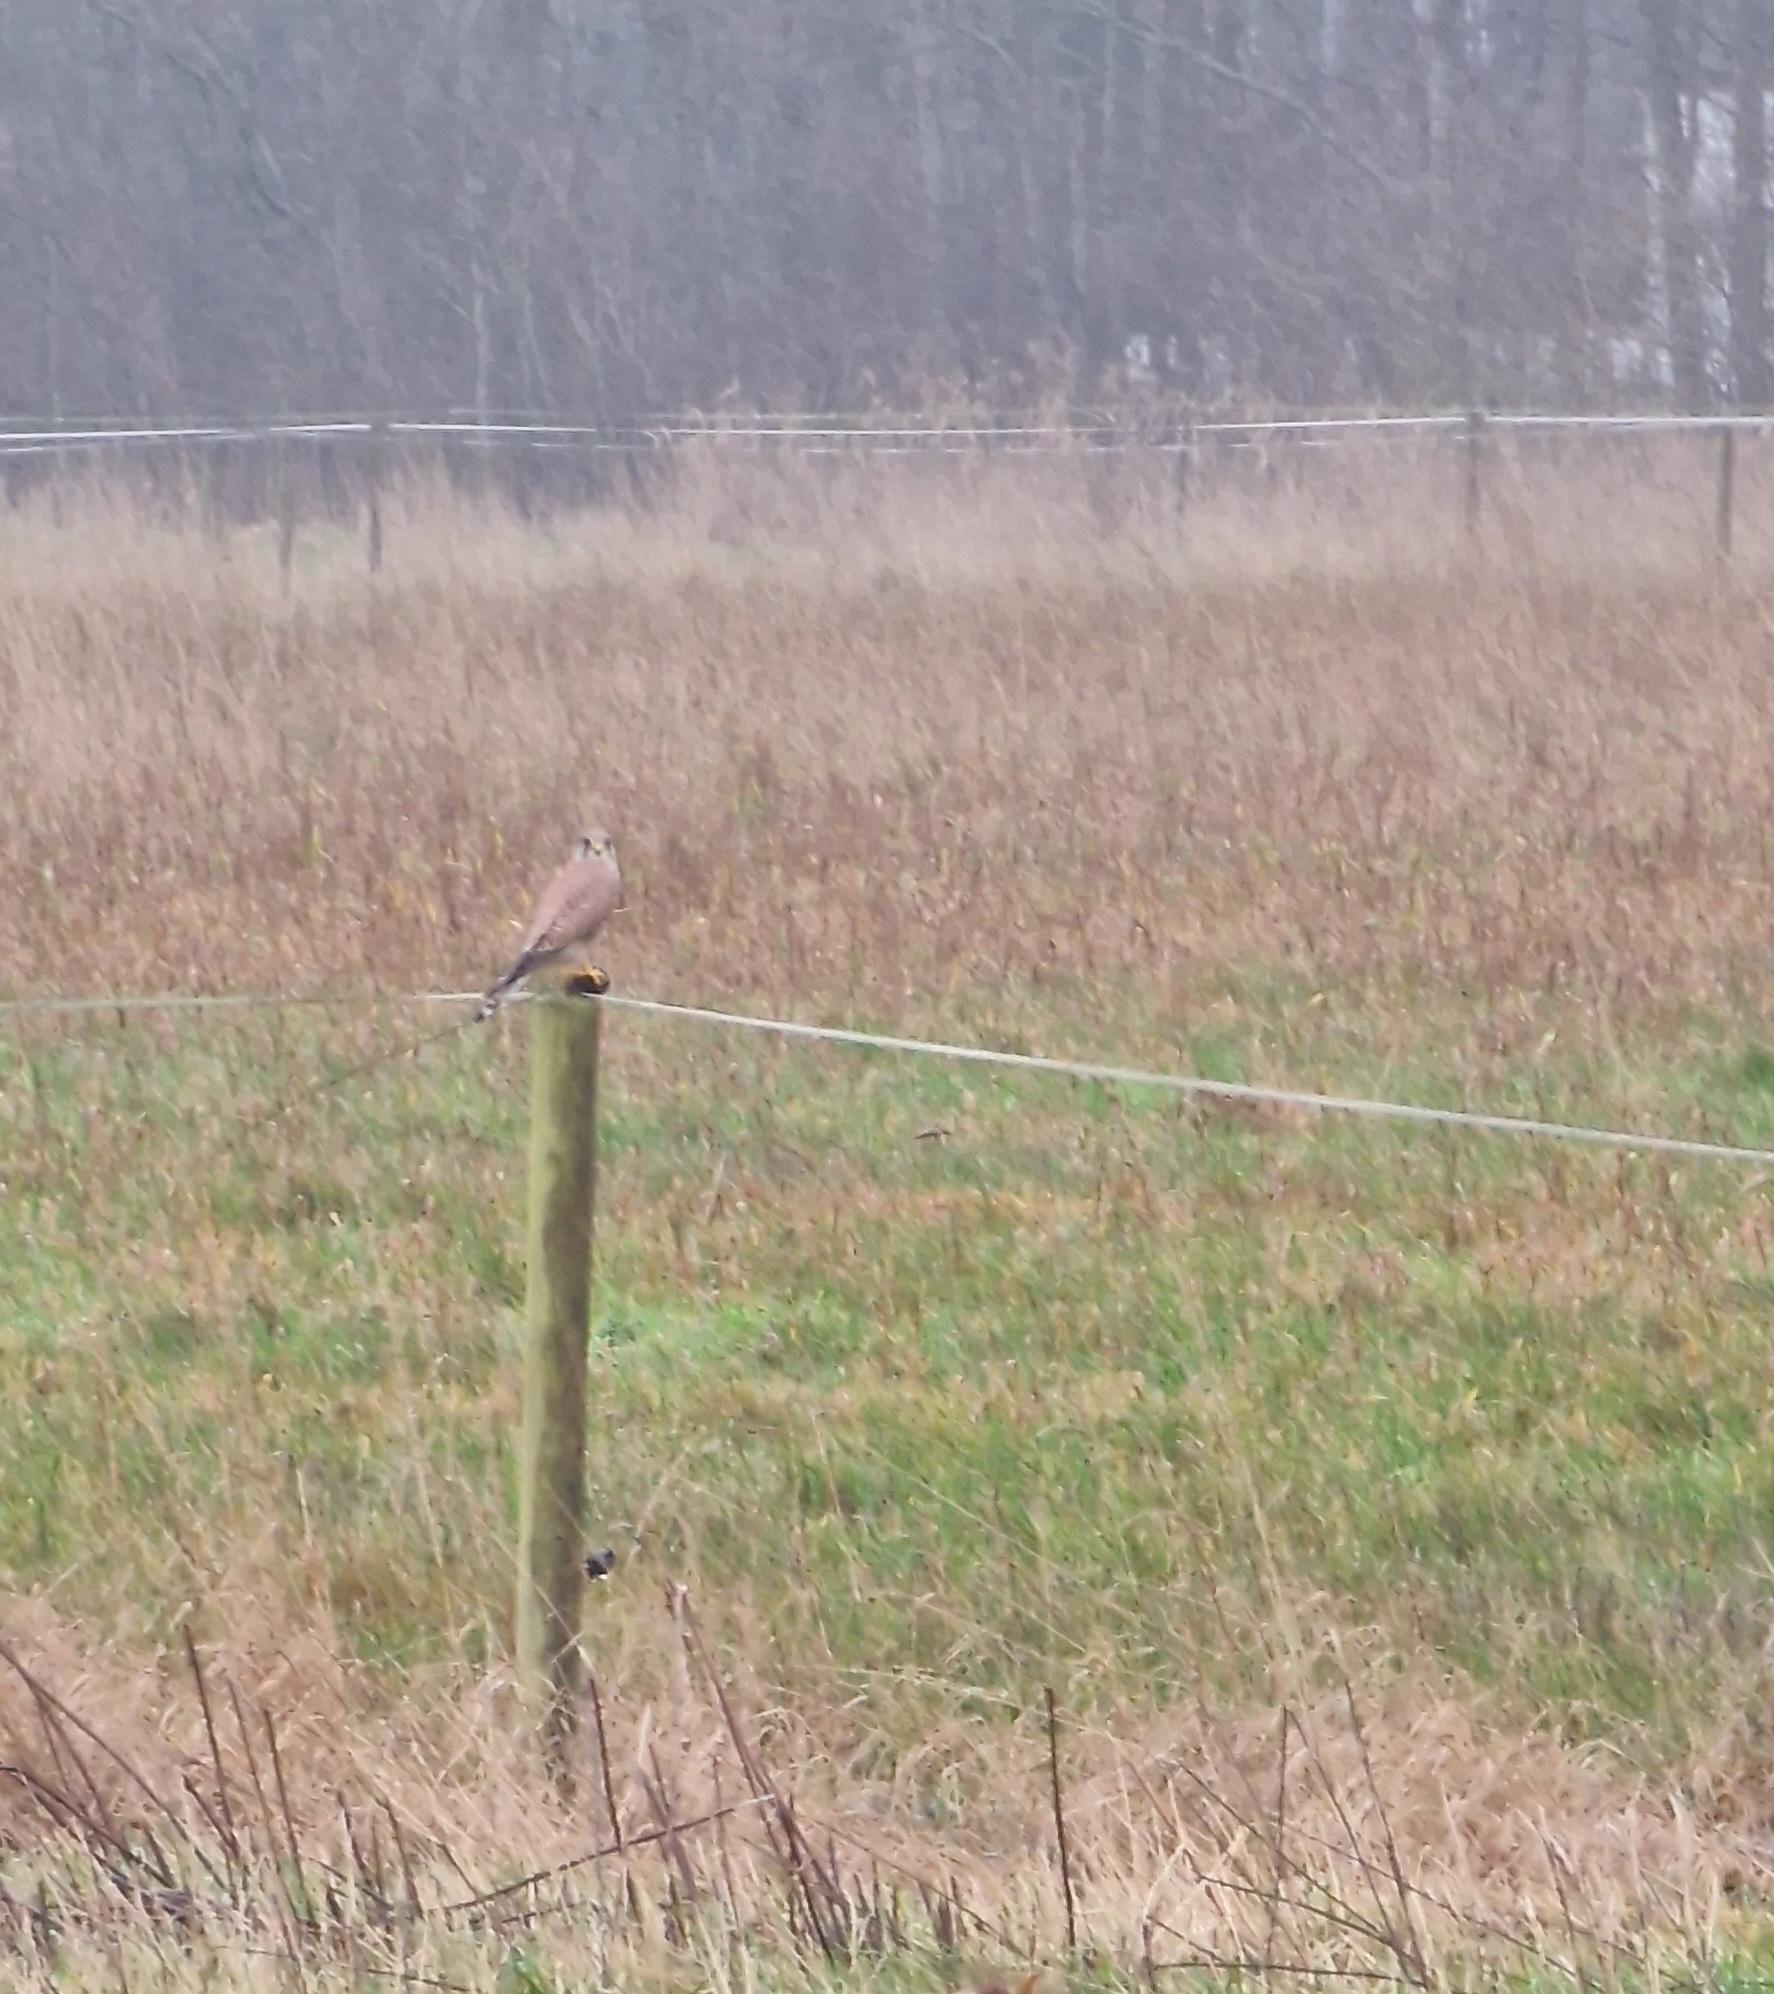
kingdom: Animalia
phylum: Chordata
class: Aves
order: Falconiformes
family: Falconidae
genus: Falco
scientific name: Falco tinnunculus
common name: Tårnfalk
